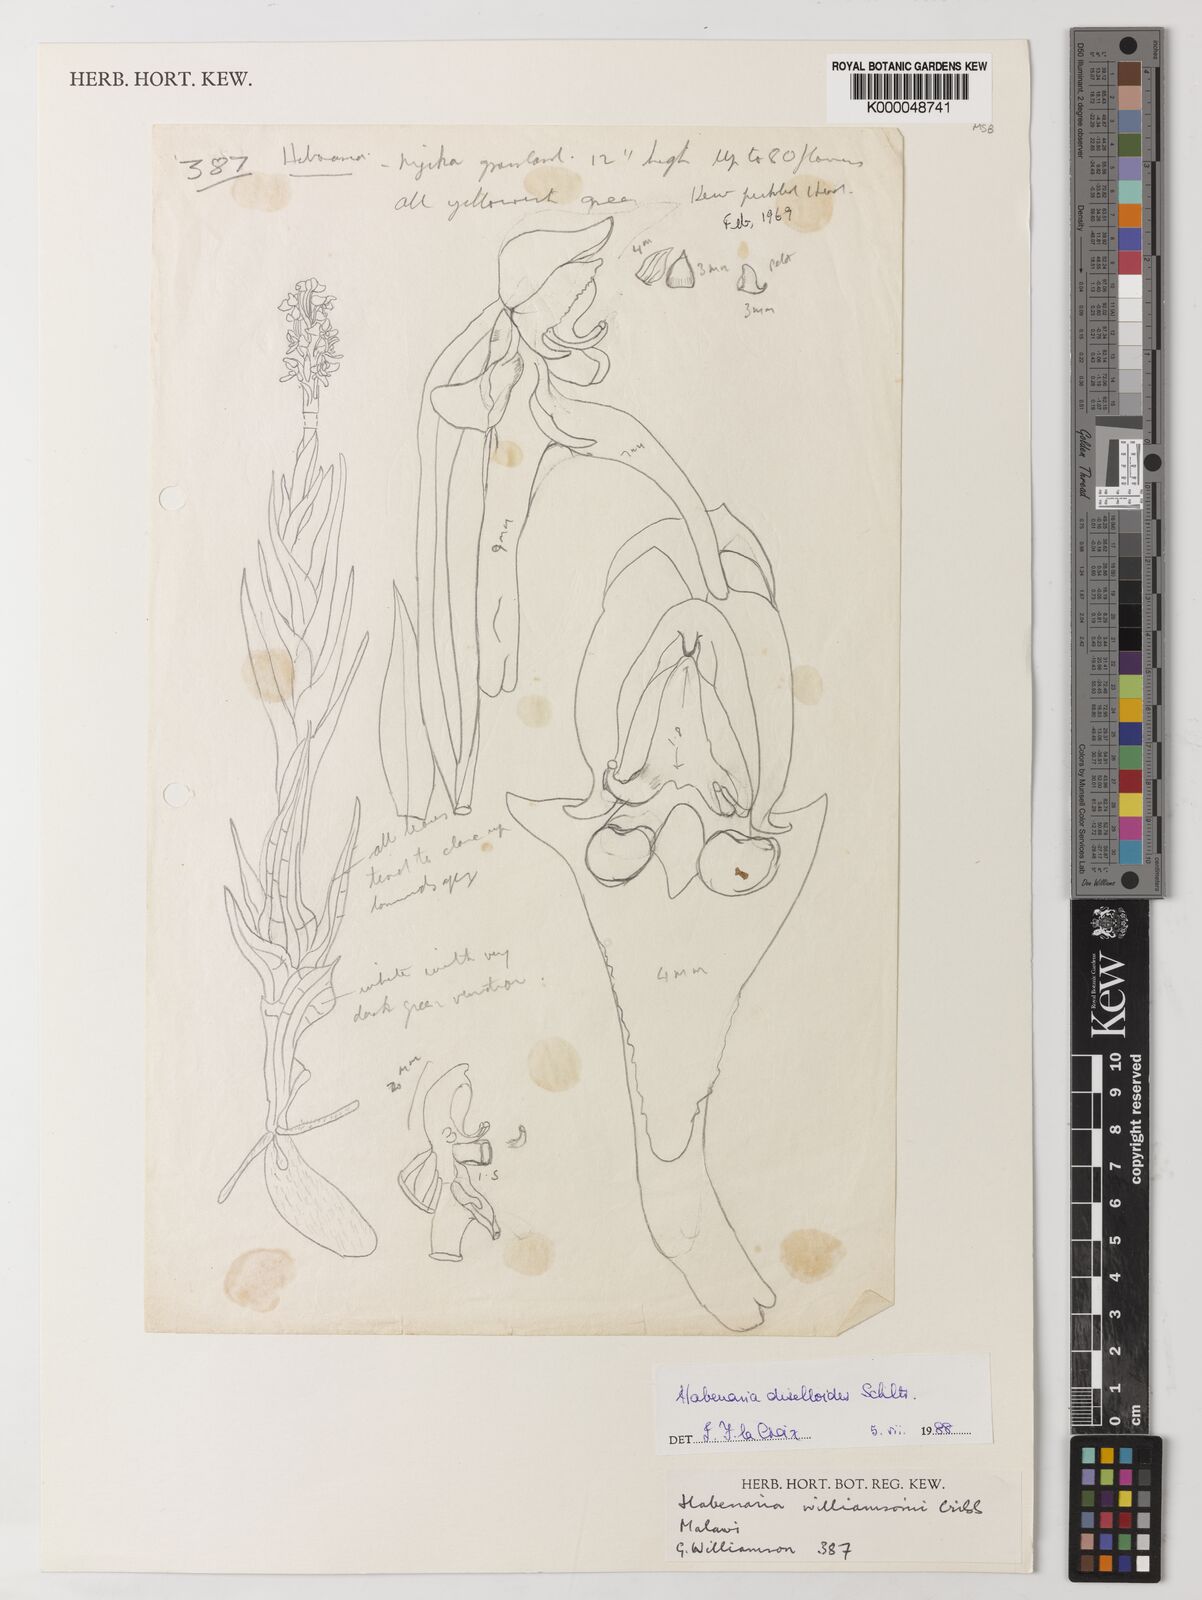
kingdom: Plantae
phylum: Tracheophyta
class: Liliopsida
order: Asparagales
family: Orchidaceae
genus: Habenaria
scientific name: Habenaria diselloides
